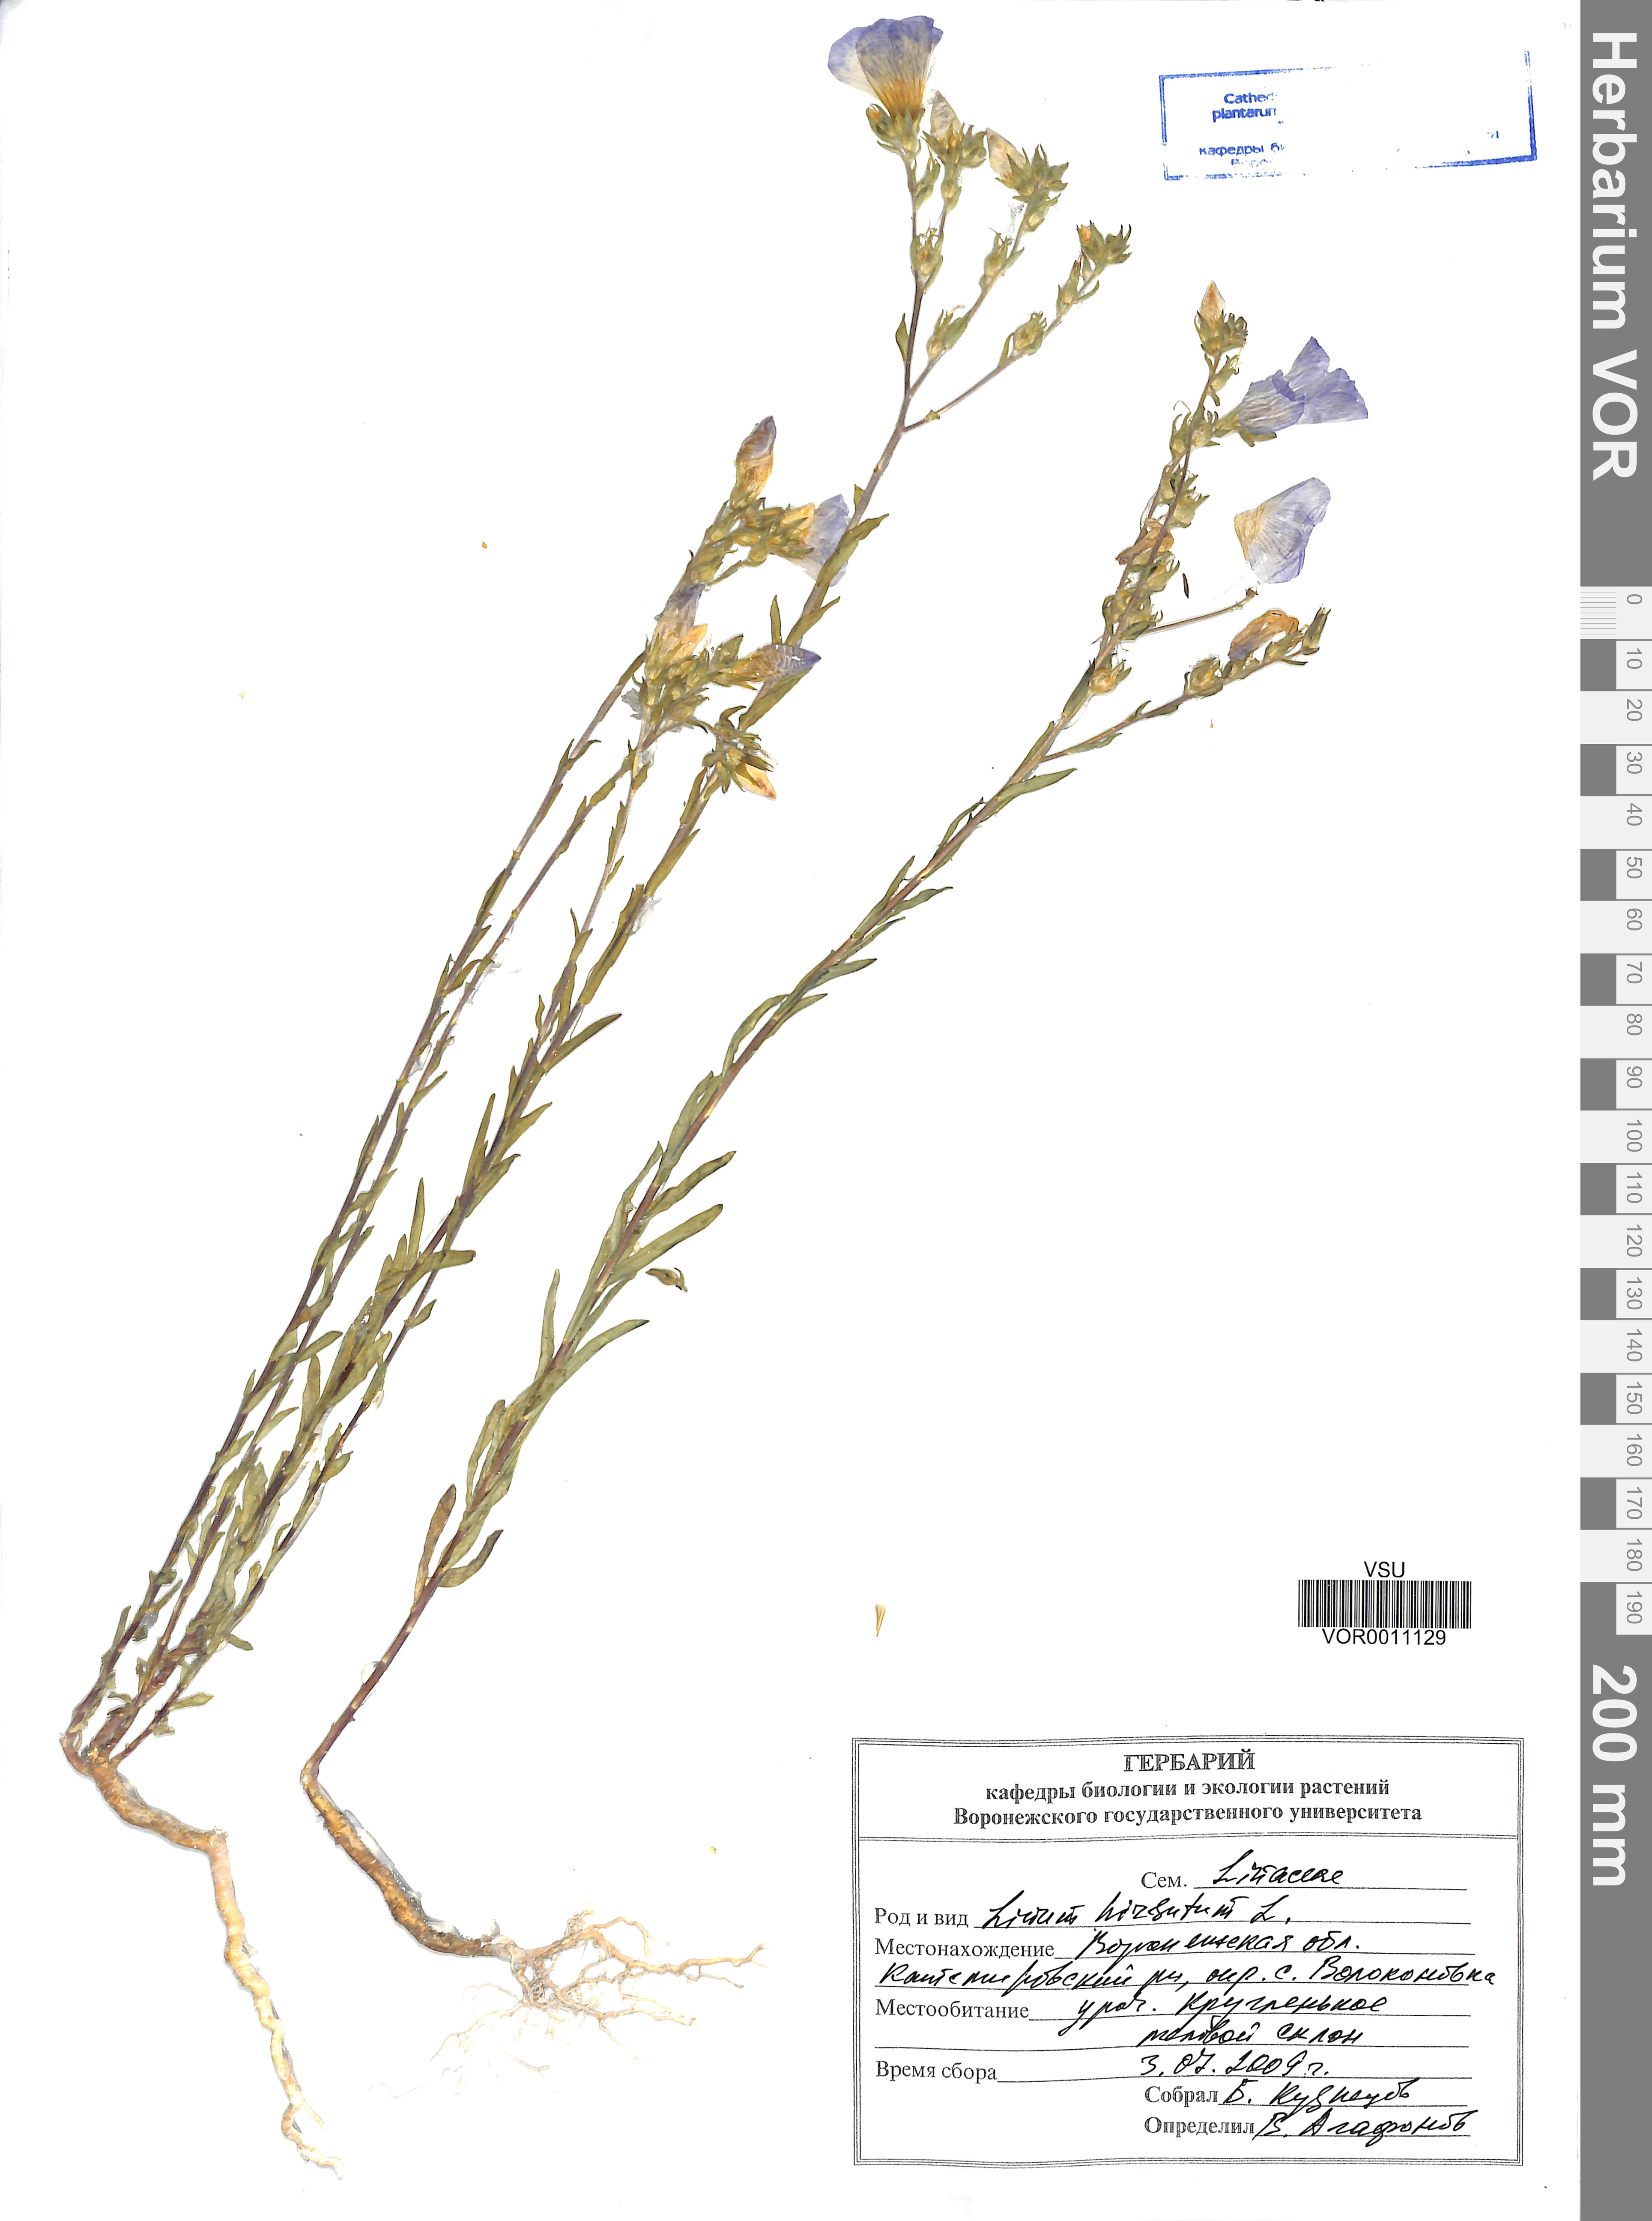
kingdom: Plantae
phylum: Tracheophyta
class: Magnoliopsida
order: Malpighiales
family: Linaceae
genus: Linum
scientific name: Linum hirsutum
